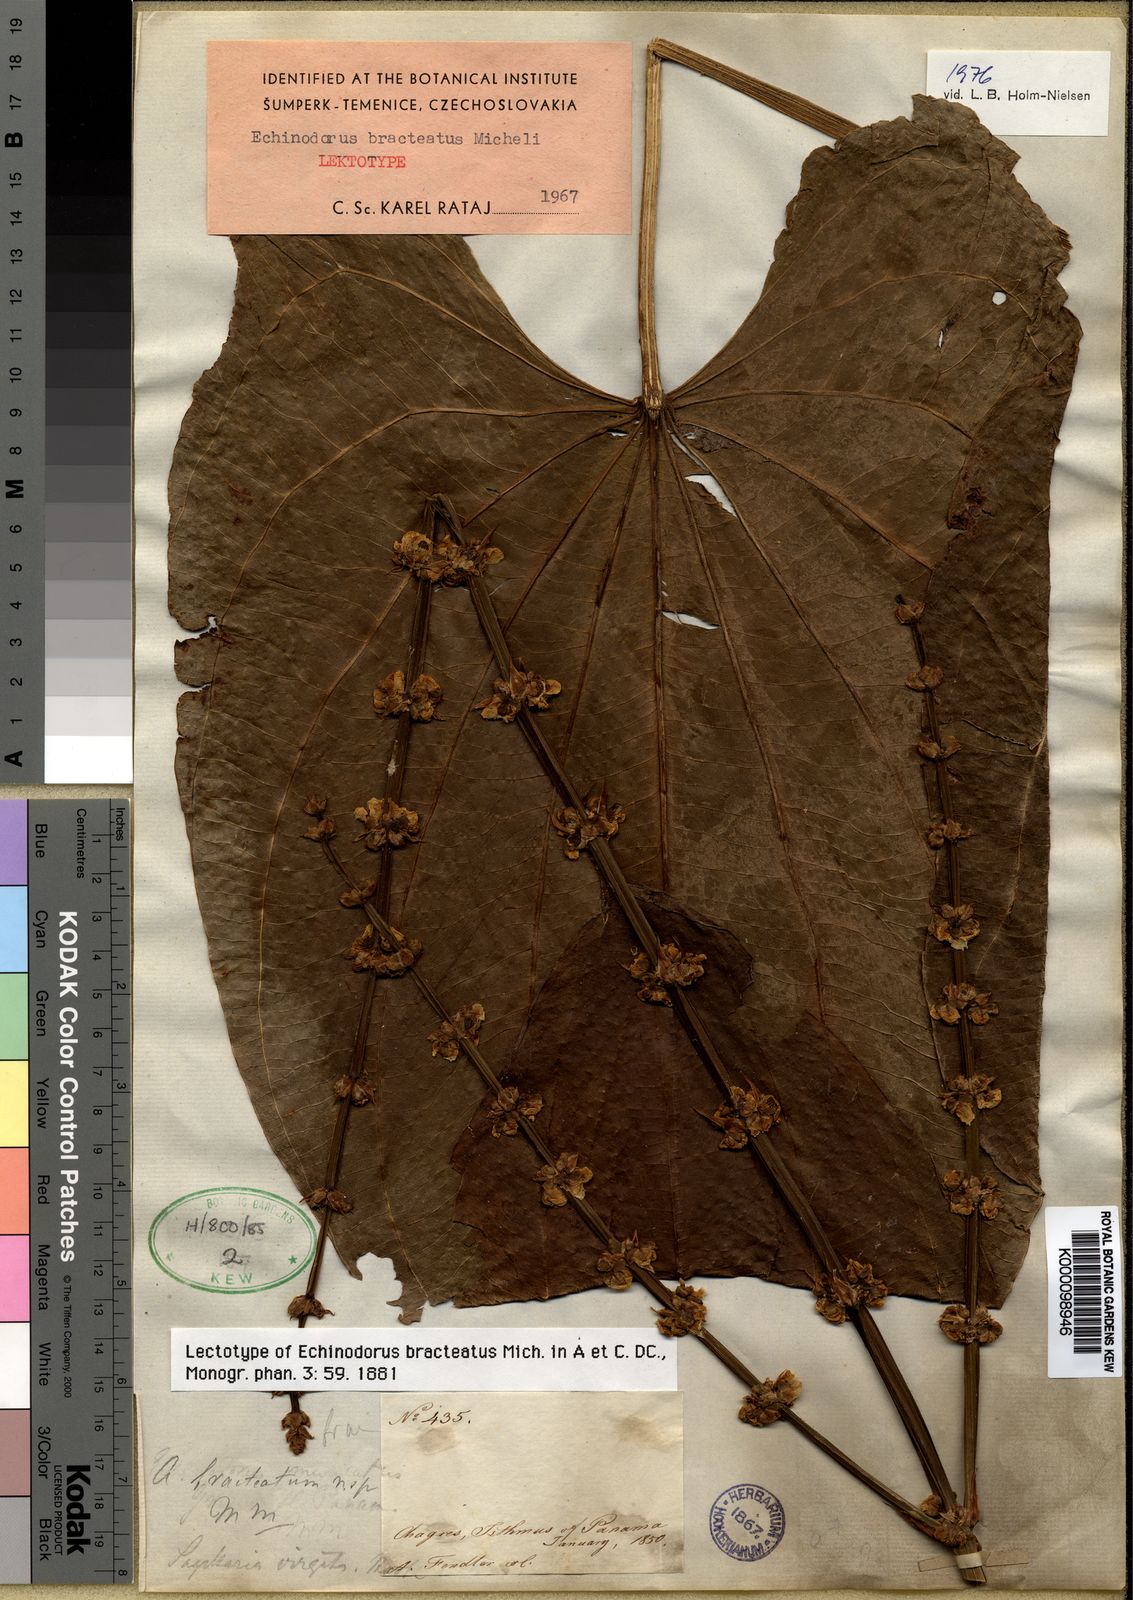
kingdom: Plantae
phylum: Tracheophyta
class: Liliopsida
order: Alismatales
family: Alismataceae
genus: Aquarius
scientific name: Aquarius bracteatus
